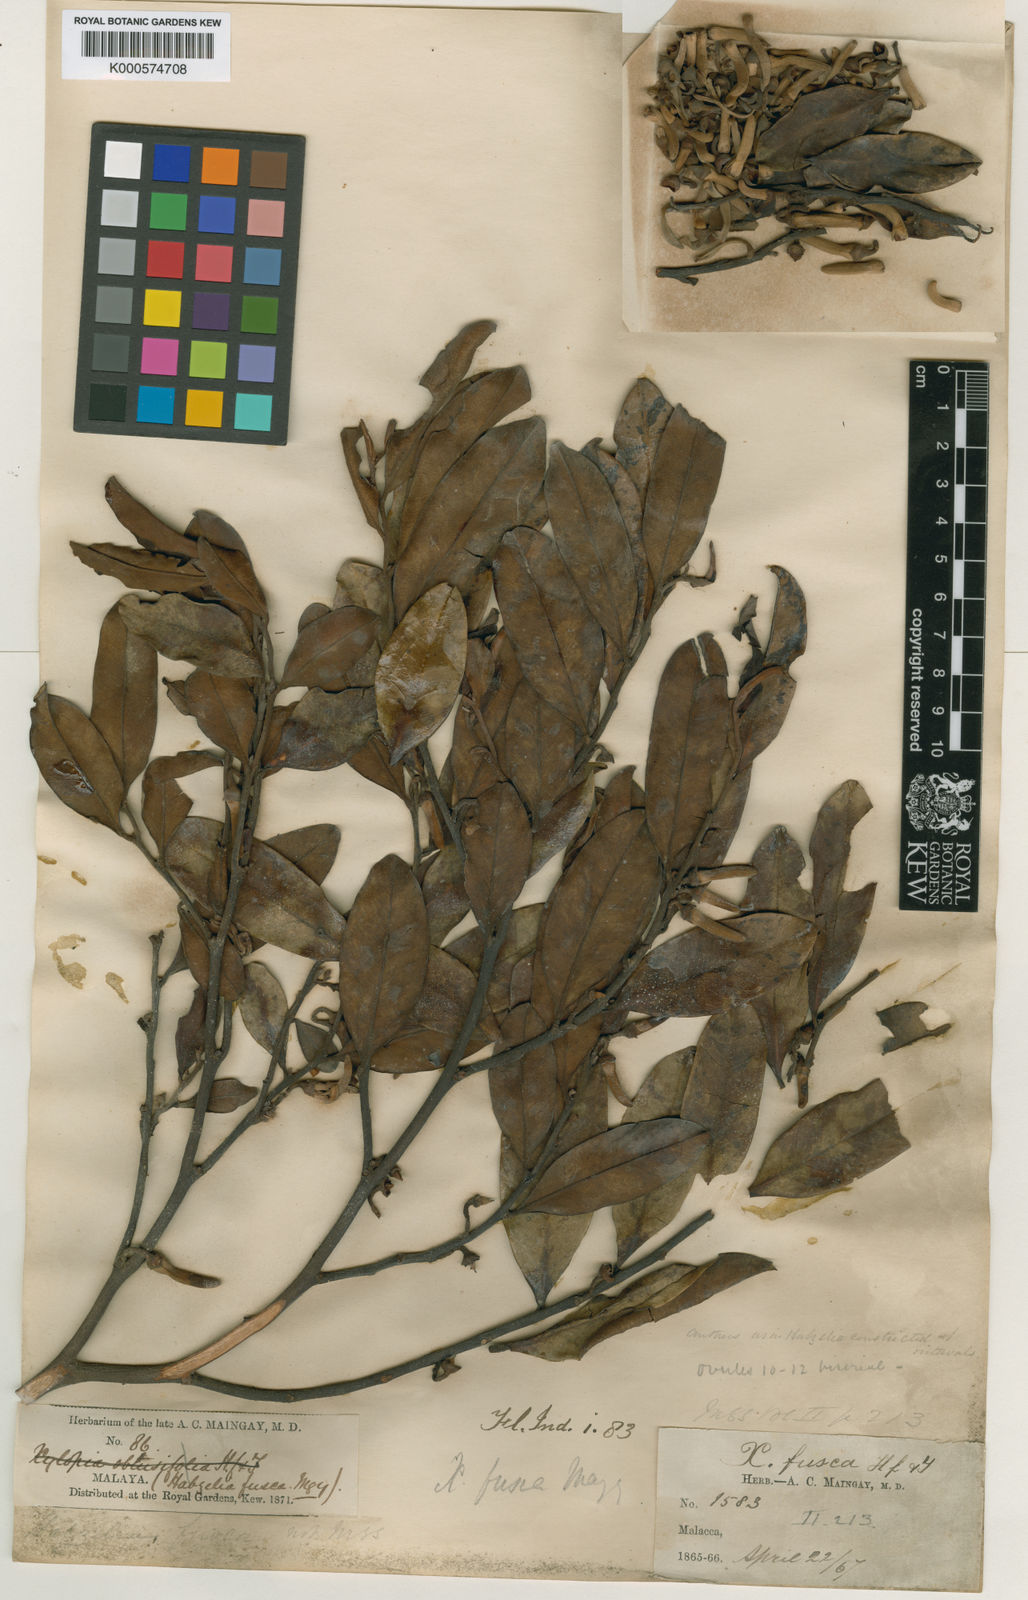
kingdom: Plantae
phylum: Tracheophyta
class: Magnoliopsida
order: Magnoliales
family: Annonaceae
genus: Xylopia
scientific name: Xylopia fusca
